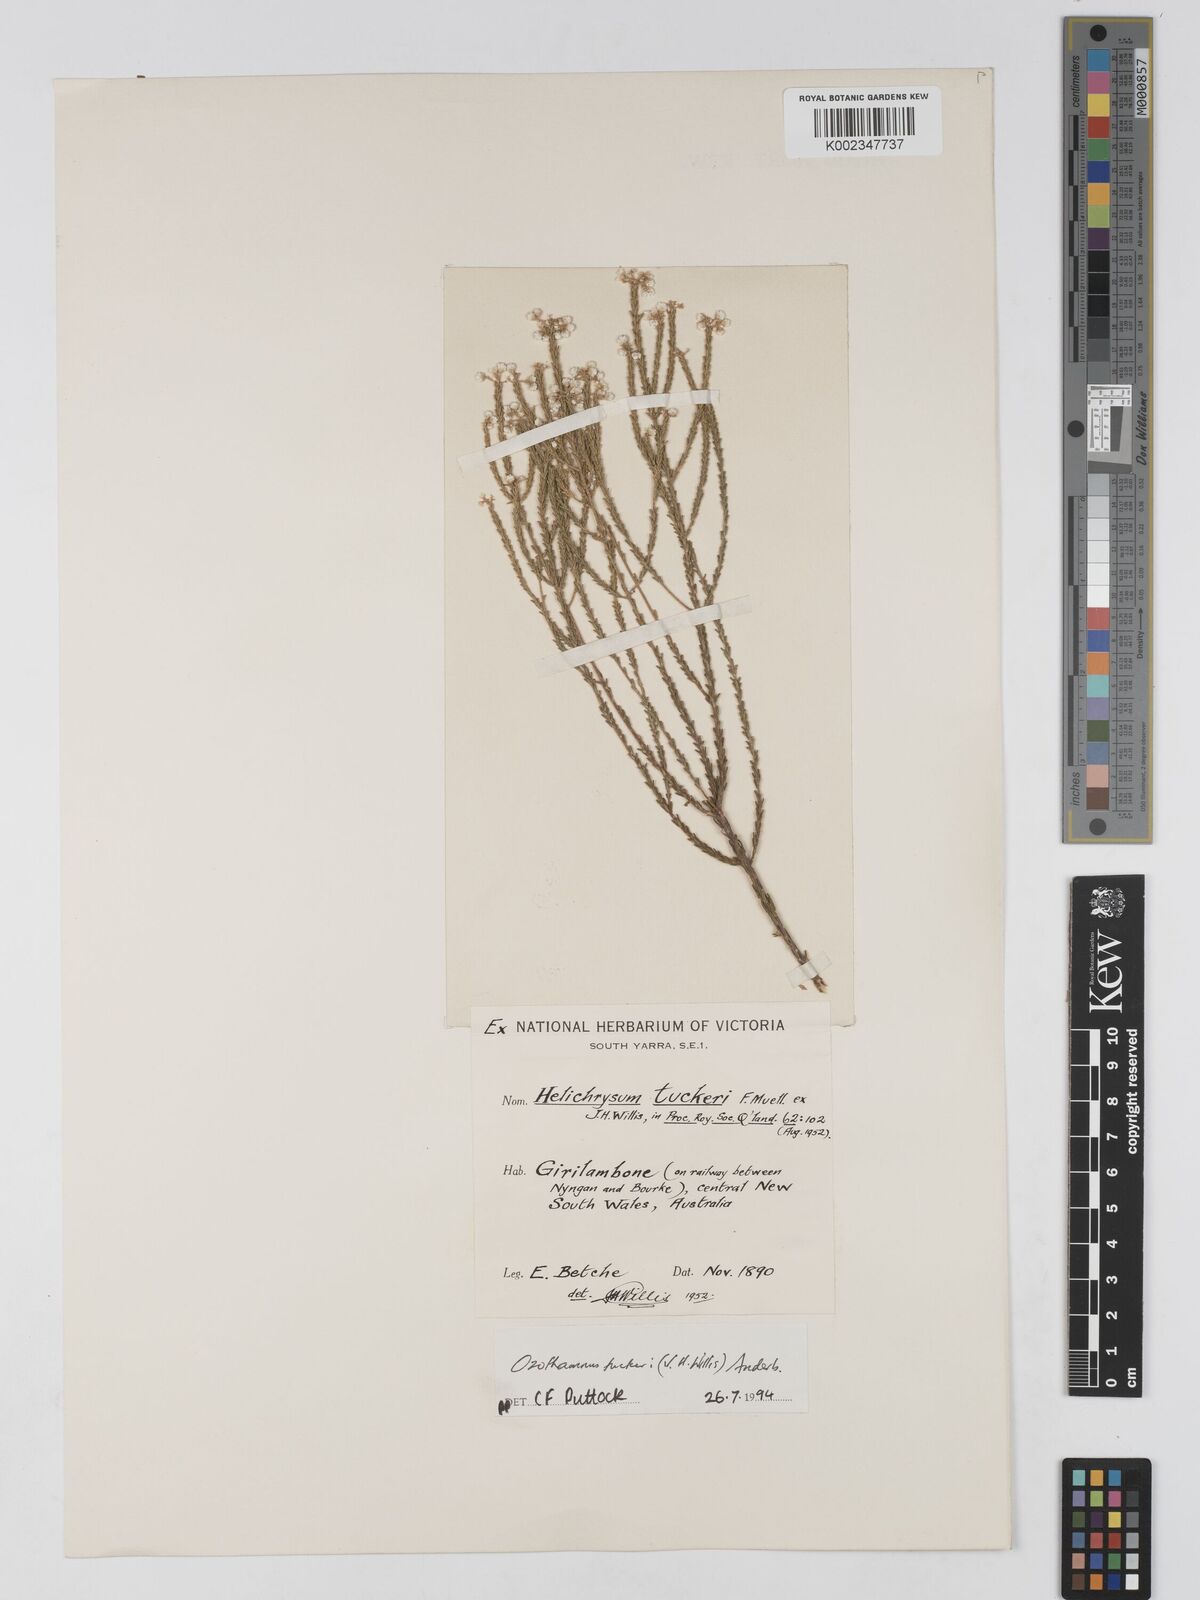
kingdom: Plantae
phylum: Tracheophyta
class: Magnoliopsida
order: Asterales
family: Asteraceae
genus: Ozothamnus
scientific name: Ozothamnus tuckeri
